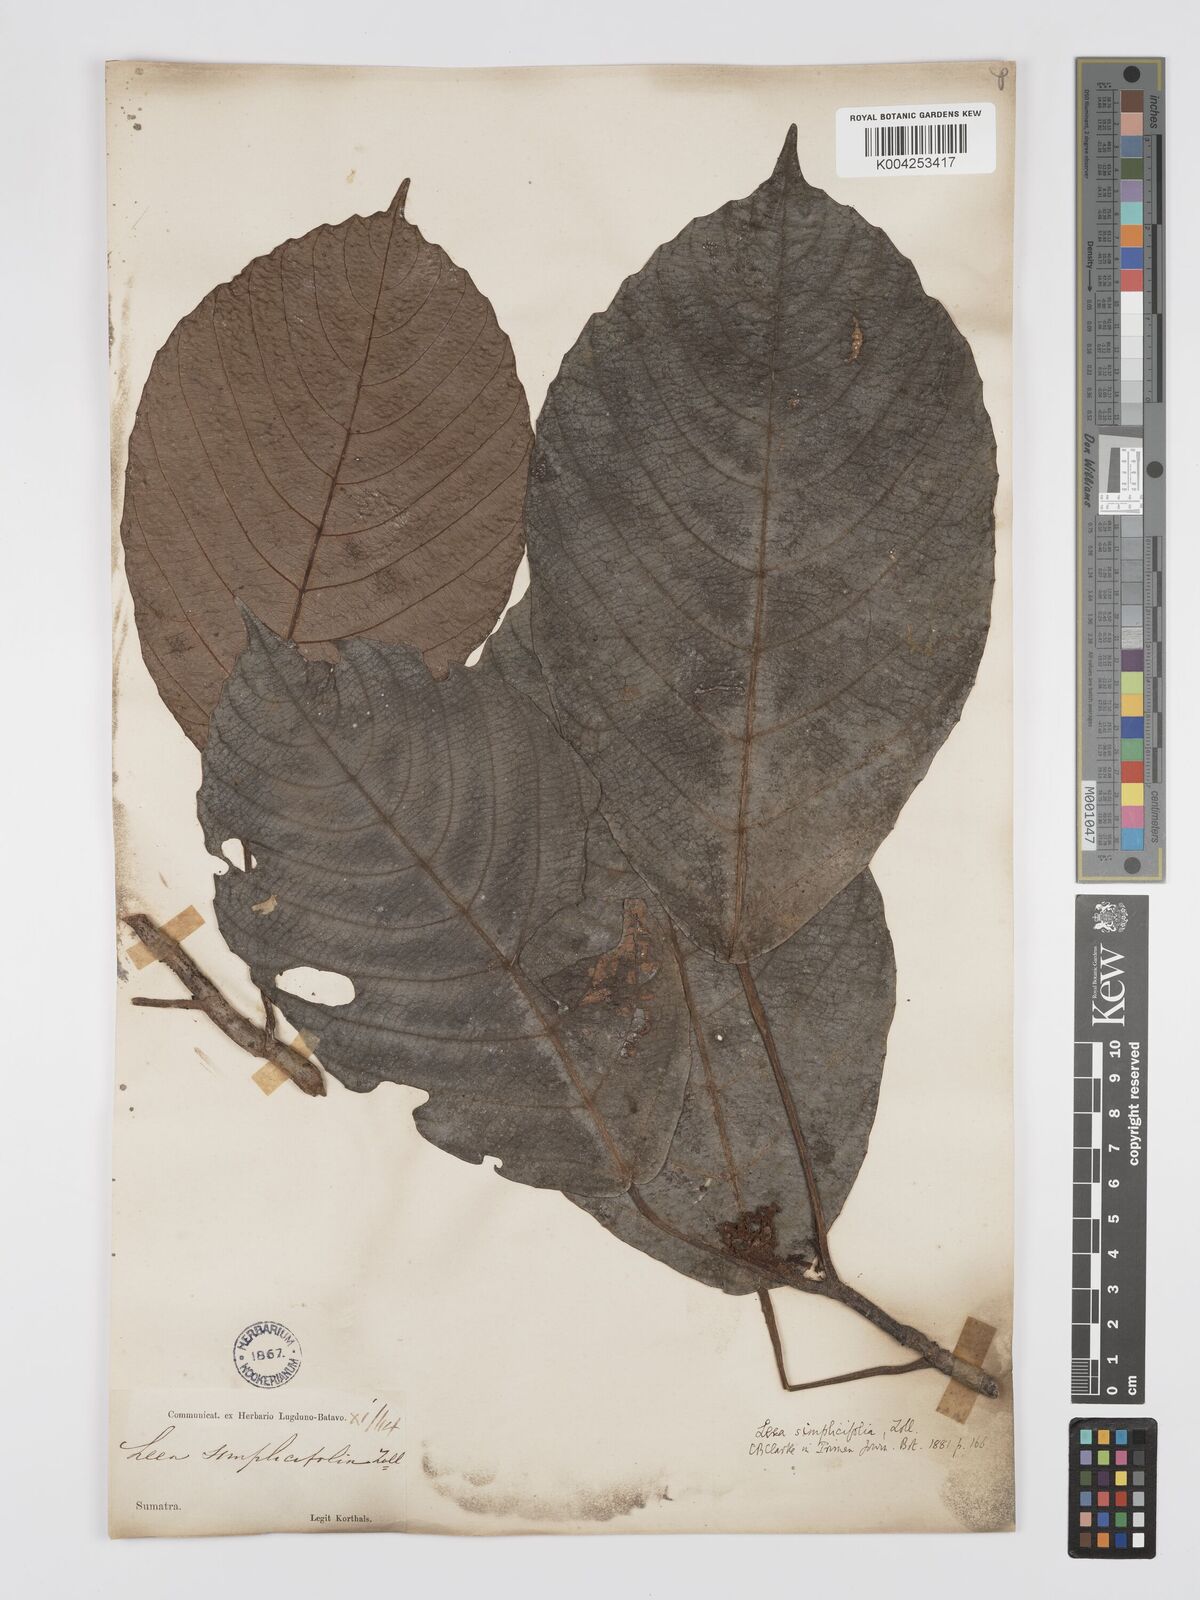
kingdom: Plantae
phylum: Tracheophyta
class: Magnoliopsida
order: Vitales
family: Vitaceae
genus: Leea
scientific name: Leea
